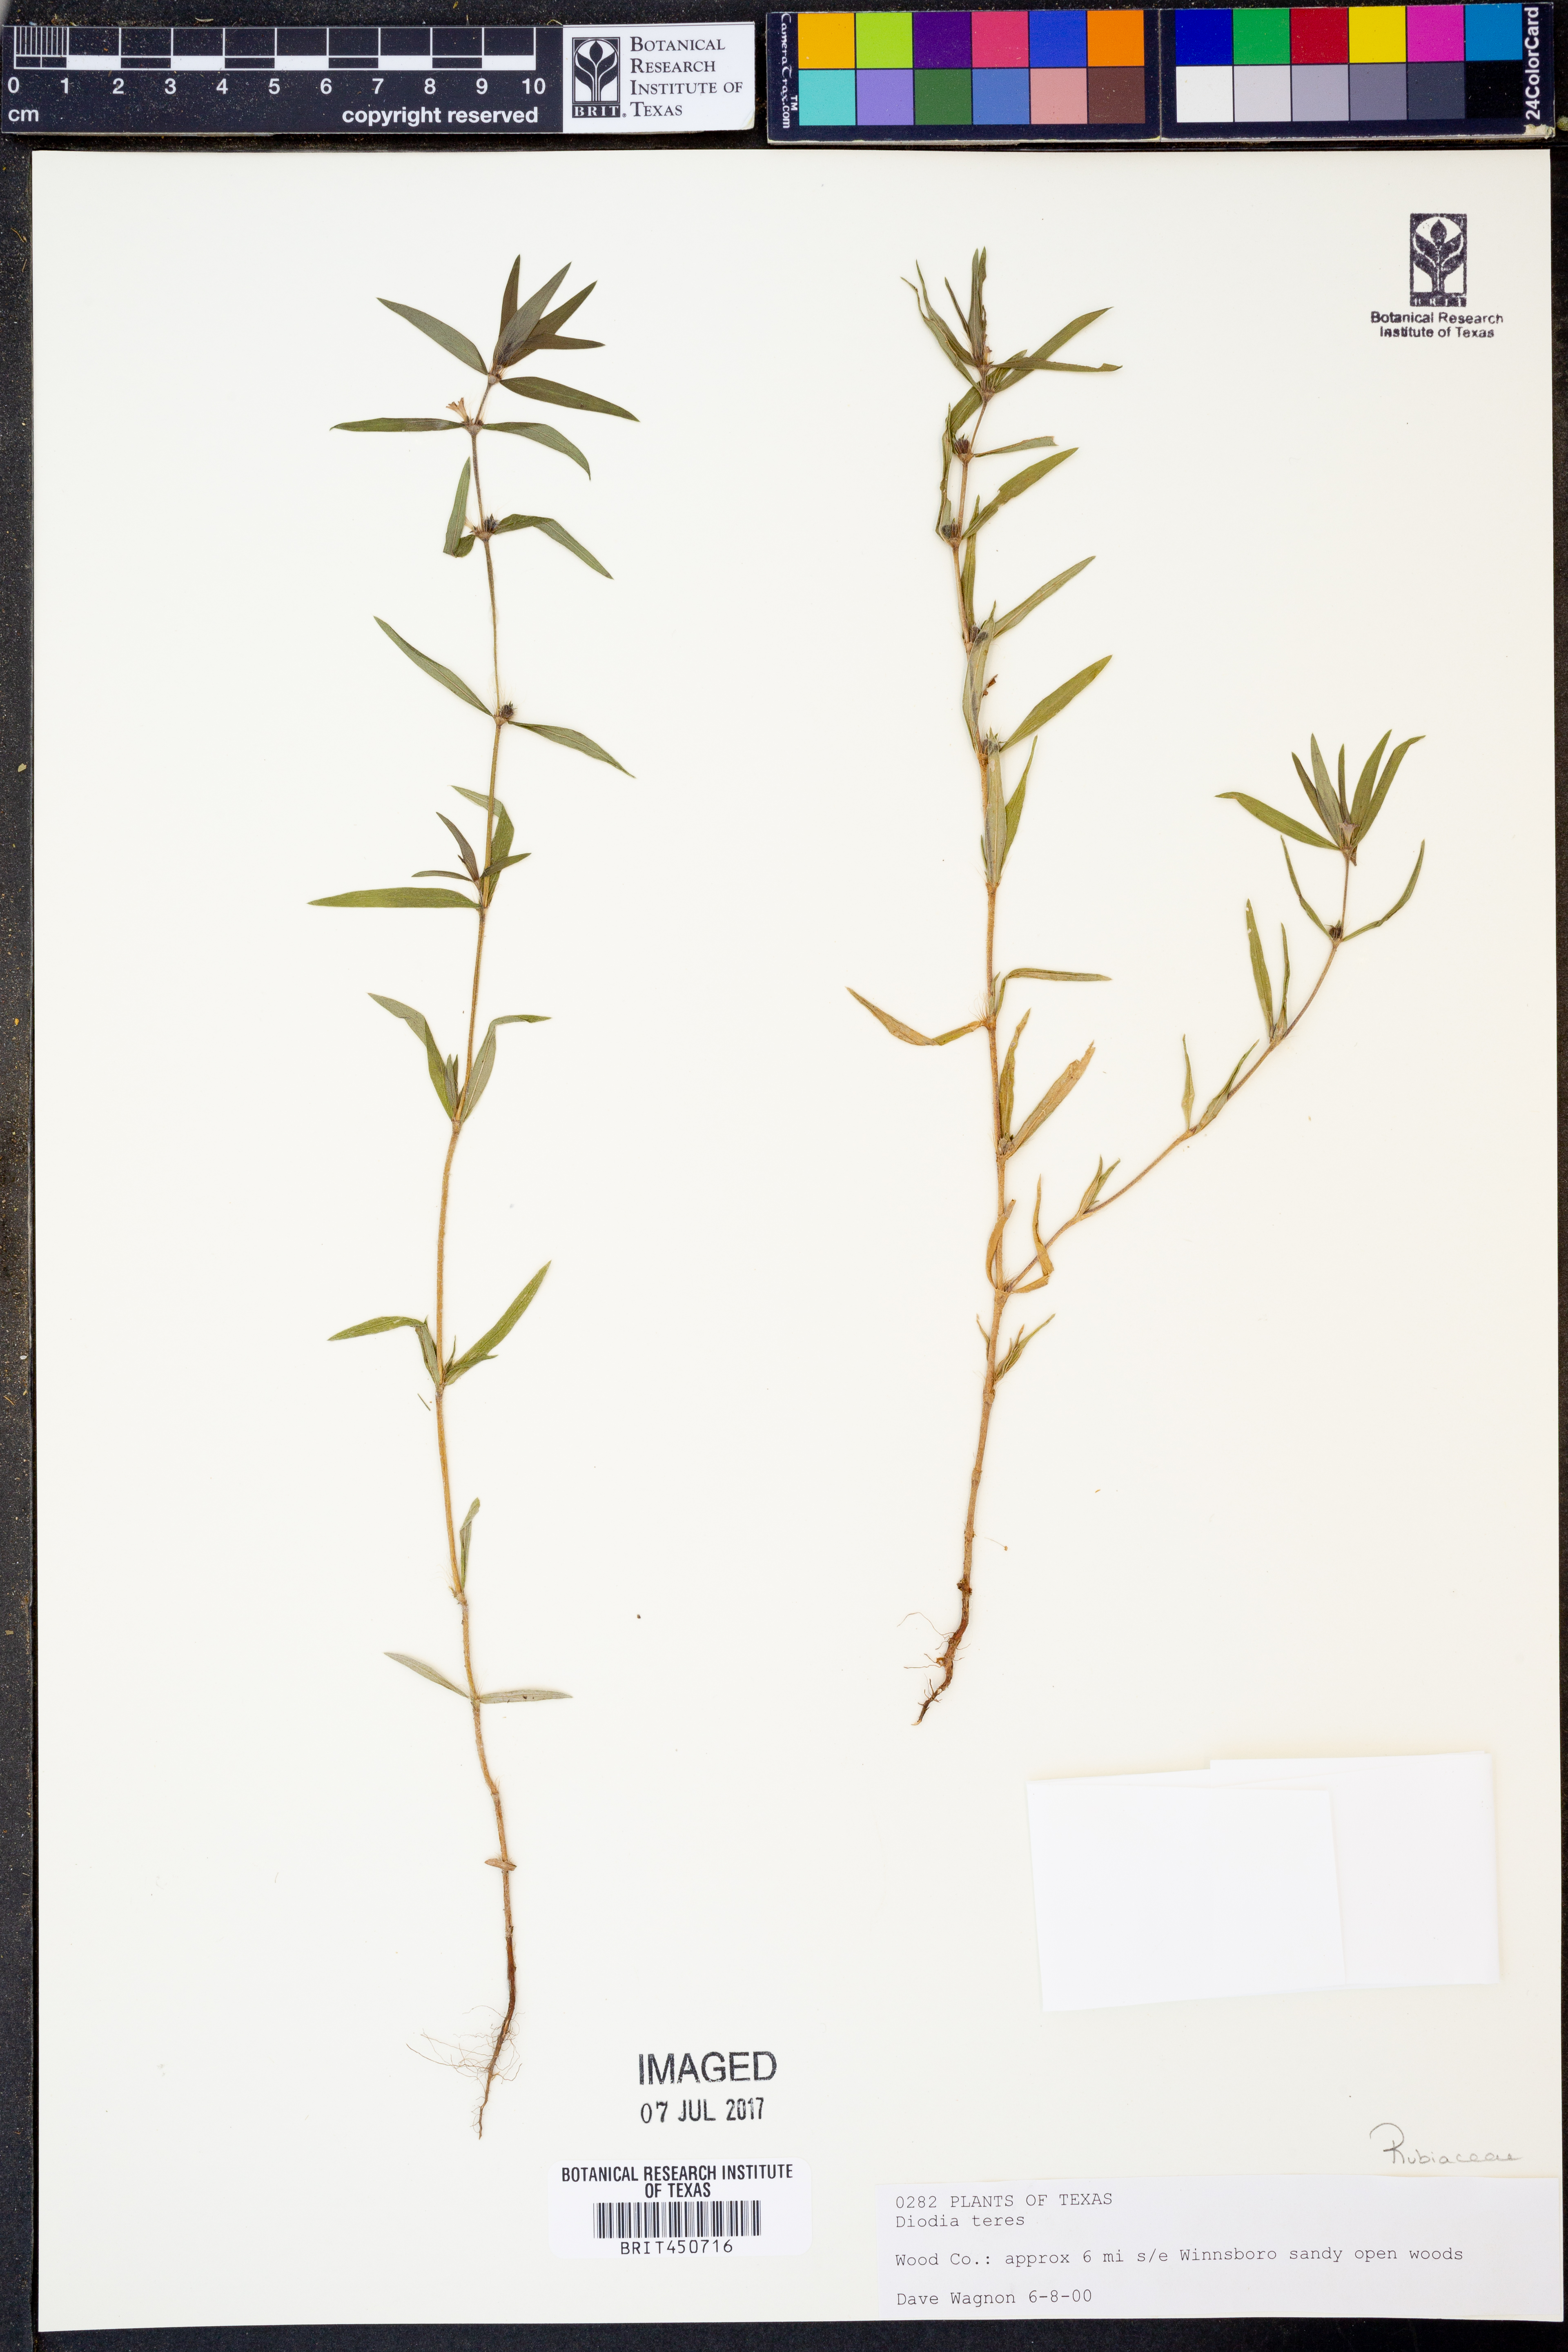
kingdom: Plantae
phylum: Tracheophyta
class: Magnoliopsida
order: Gentianales
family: Rubiaceae
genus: Hexasepalum
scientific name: Hexasepalum teres
